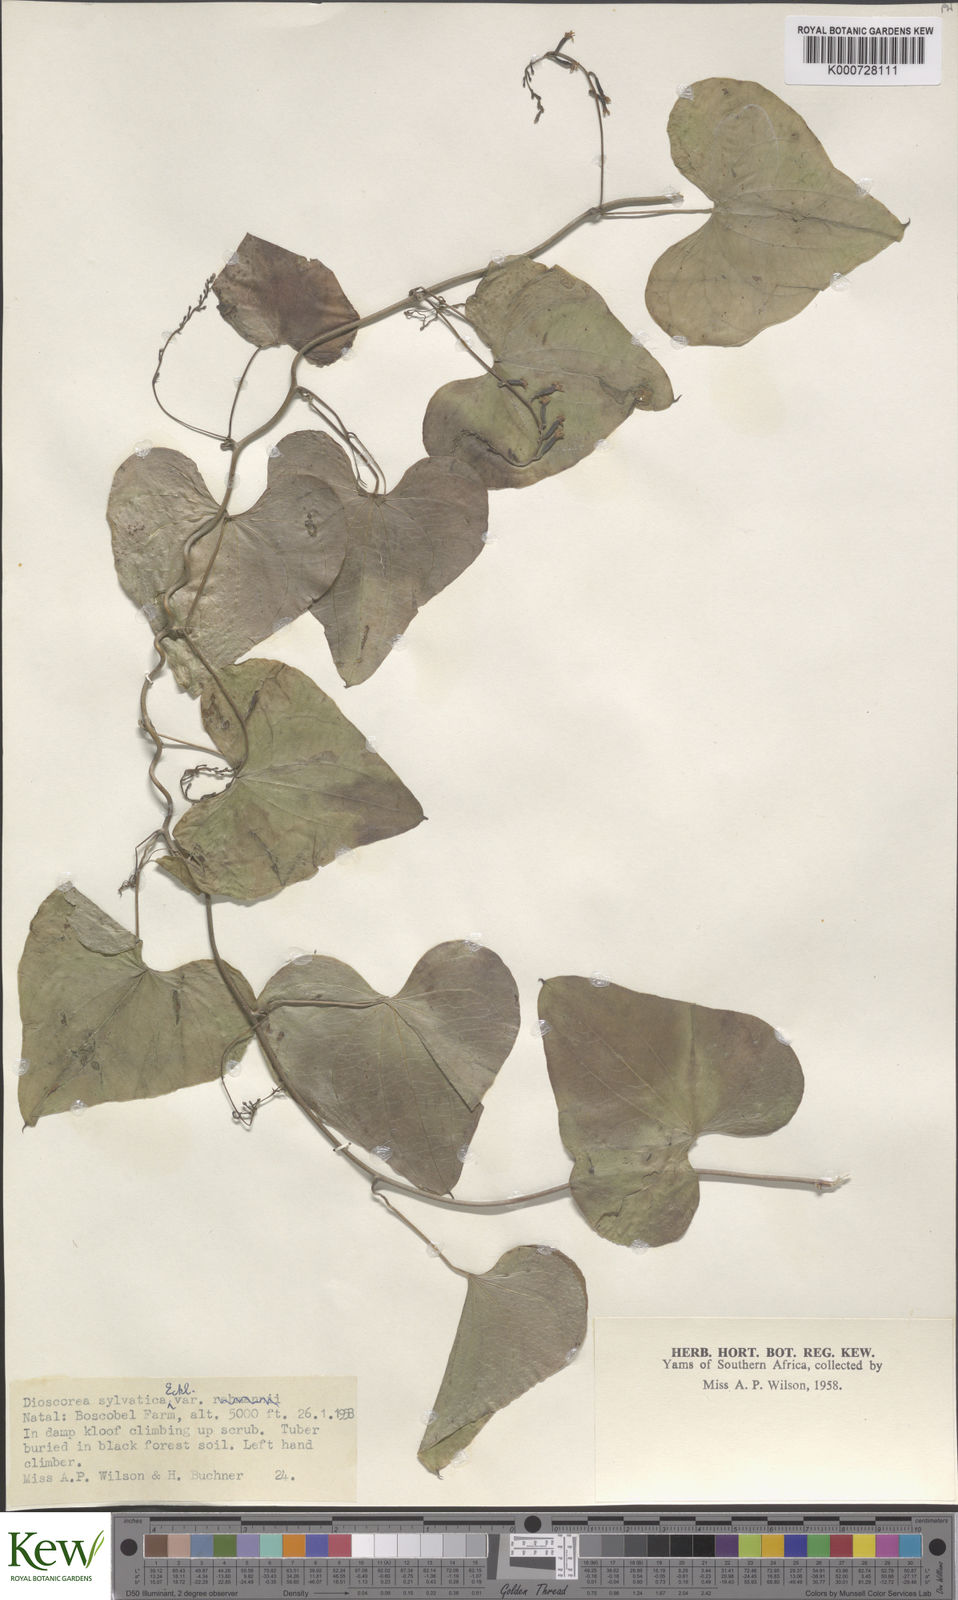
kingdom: Plantae
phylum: Tracheophyta
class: Liliopsida
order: Dioscoreales
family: Dioscoreaceae
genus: Dioscorea
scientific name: Dioscorea sylvatica
